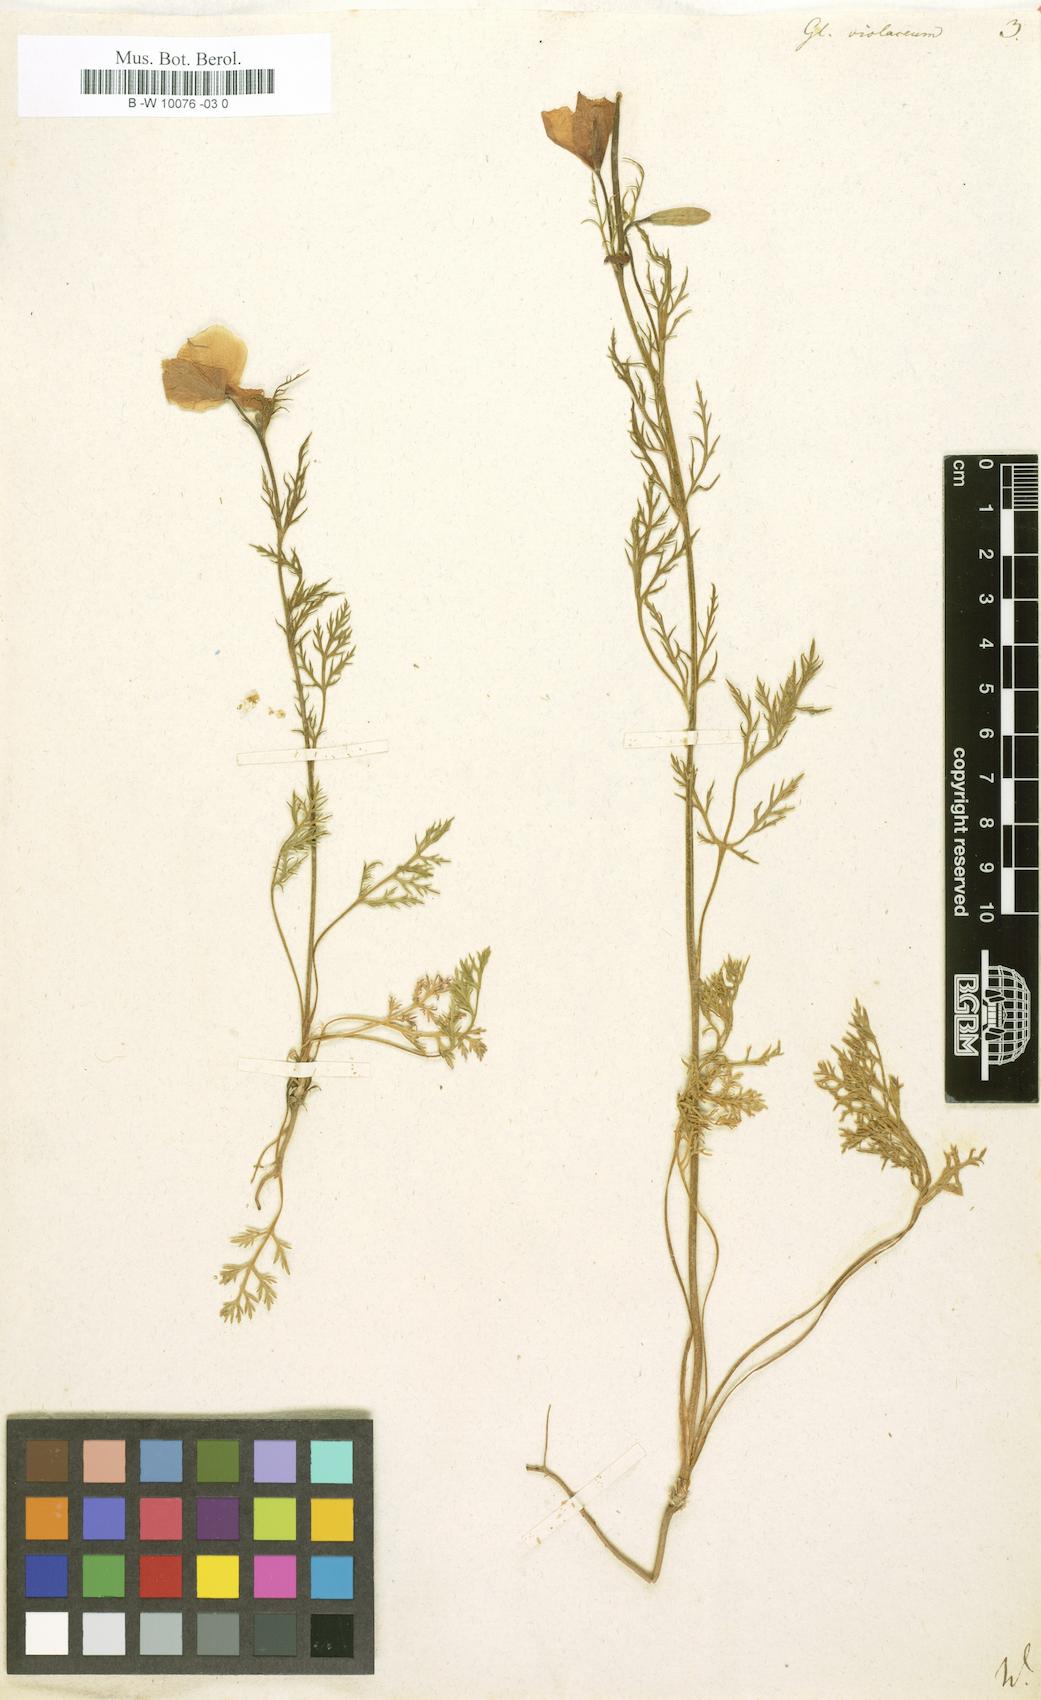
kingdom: Plantae
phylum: Tracheophyta
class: Magnoliopsida
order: Ranunculales
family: Papaveraceae
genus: Roemeria
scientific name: Roemeria hybrida
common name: Violet horned-poppy
